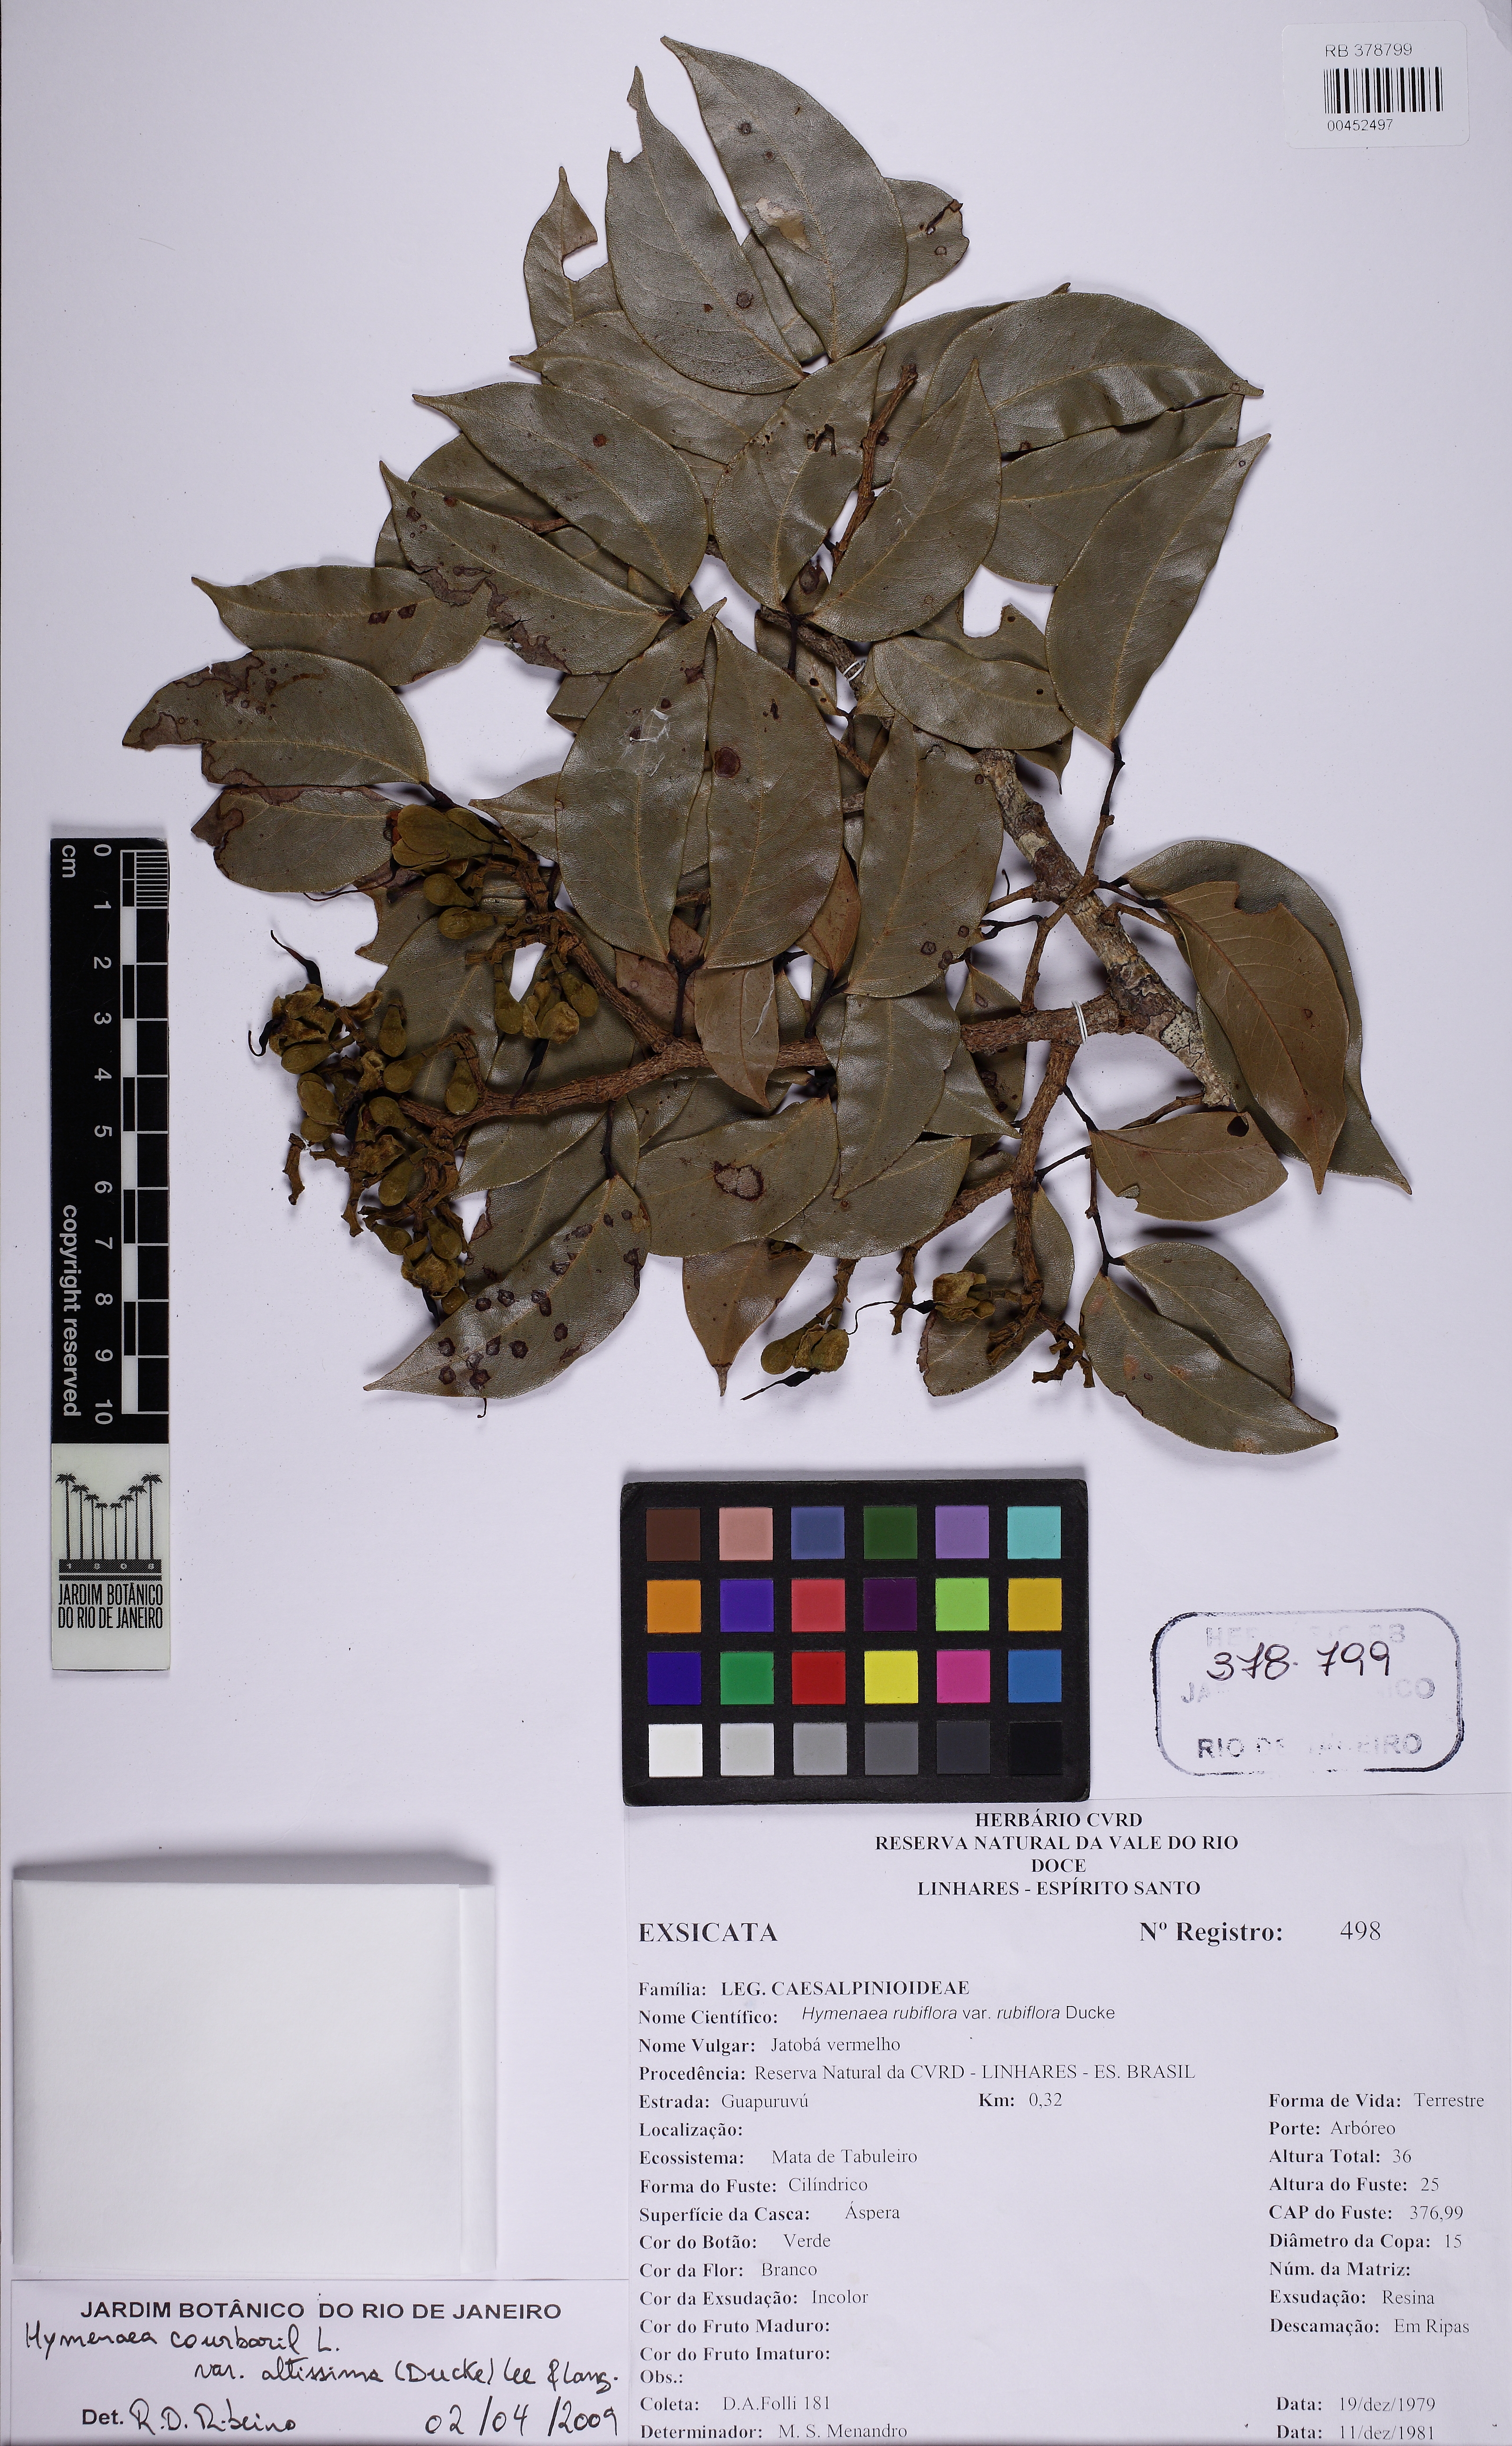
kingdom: Plantae
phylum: Tracheophyta
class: Magnoliopsida
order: Fabales
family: Fabaceae
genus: Hymenaea
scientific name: Hymenaea altissima
